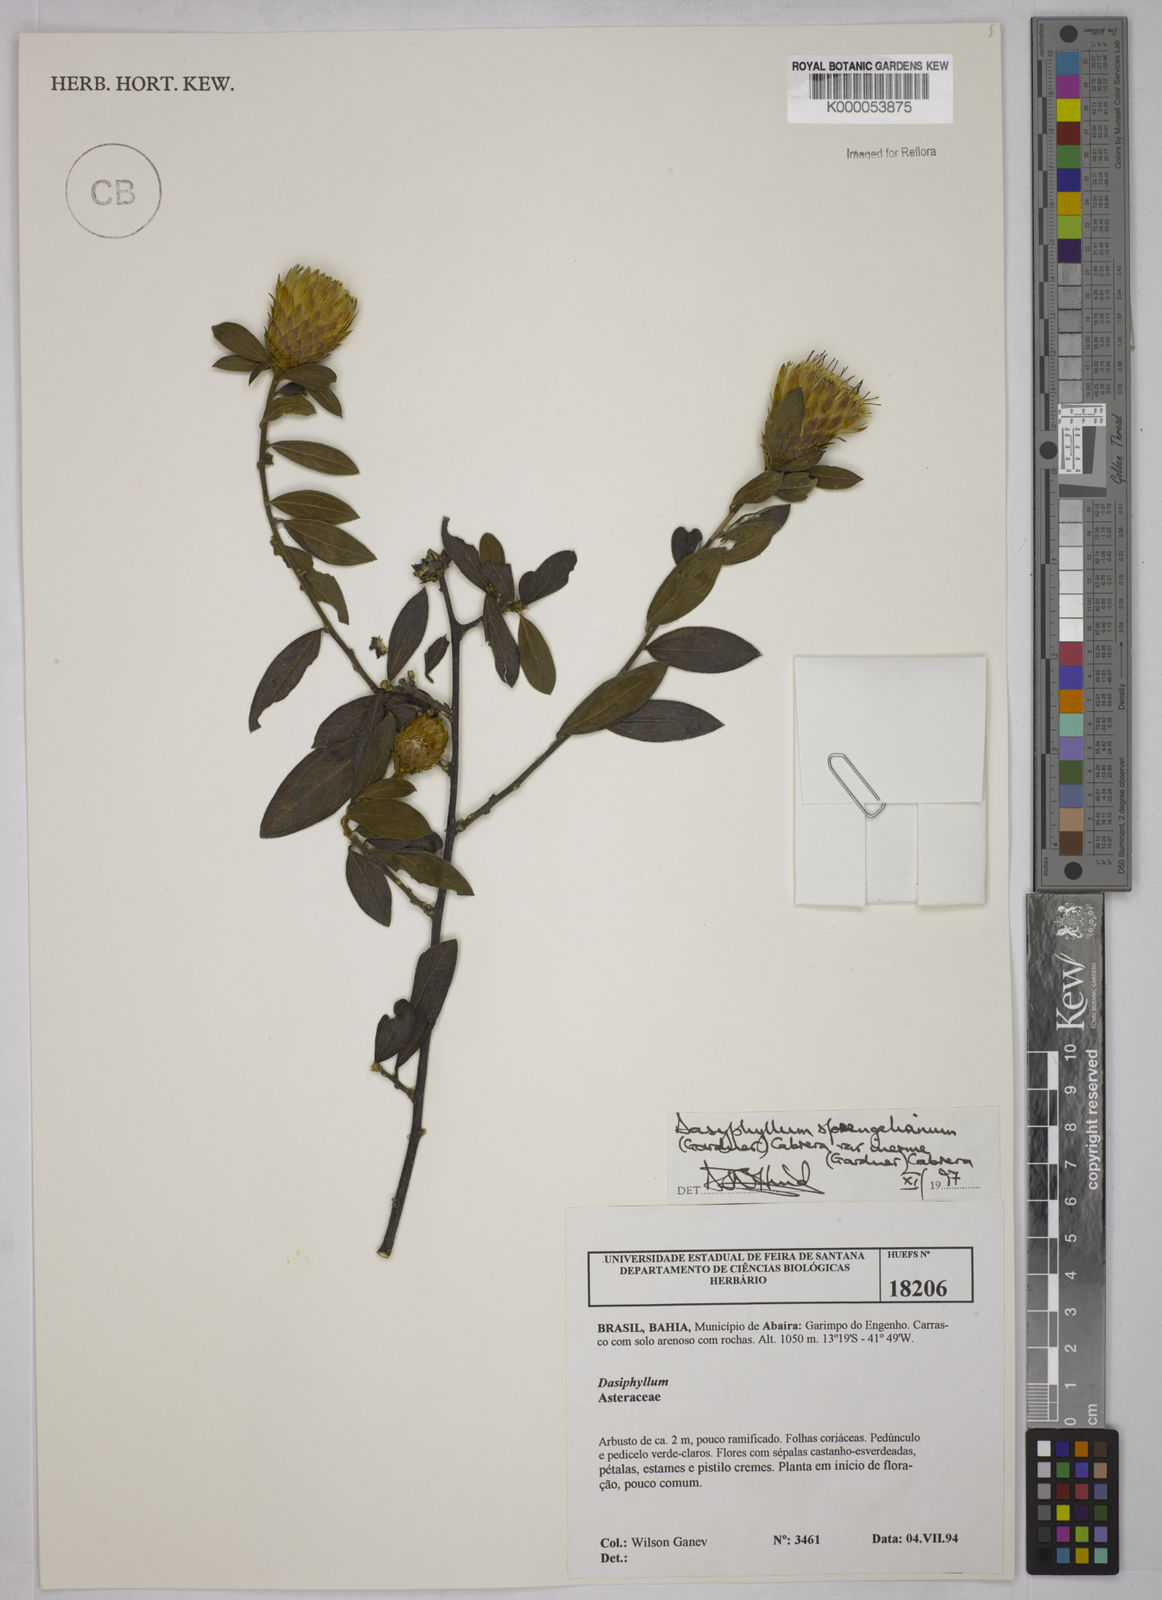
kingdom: Plantae
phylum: Tracheophyta
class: Magnoliopsida
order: Asterales
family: Asteraceae
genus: Dasyphyllum
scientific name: Dasyphyllum sprengelianum
